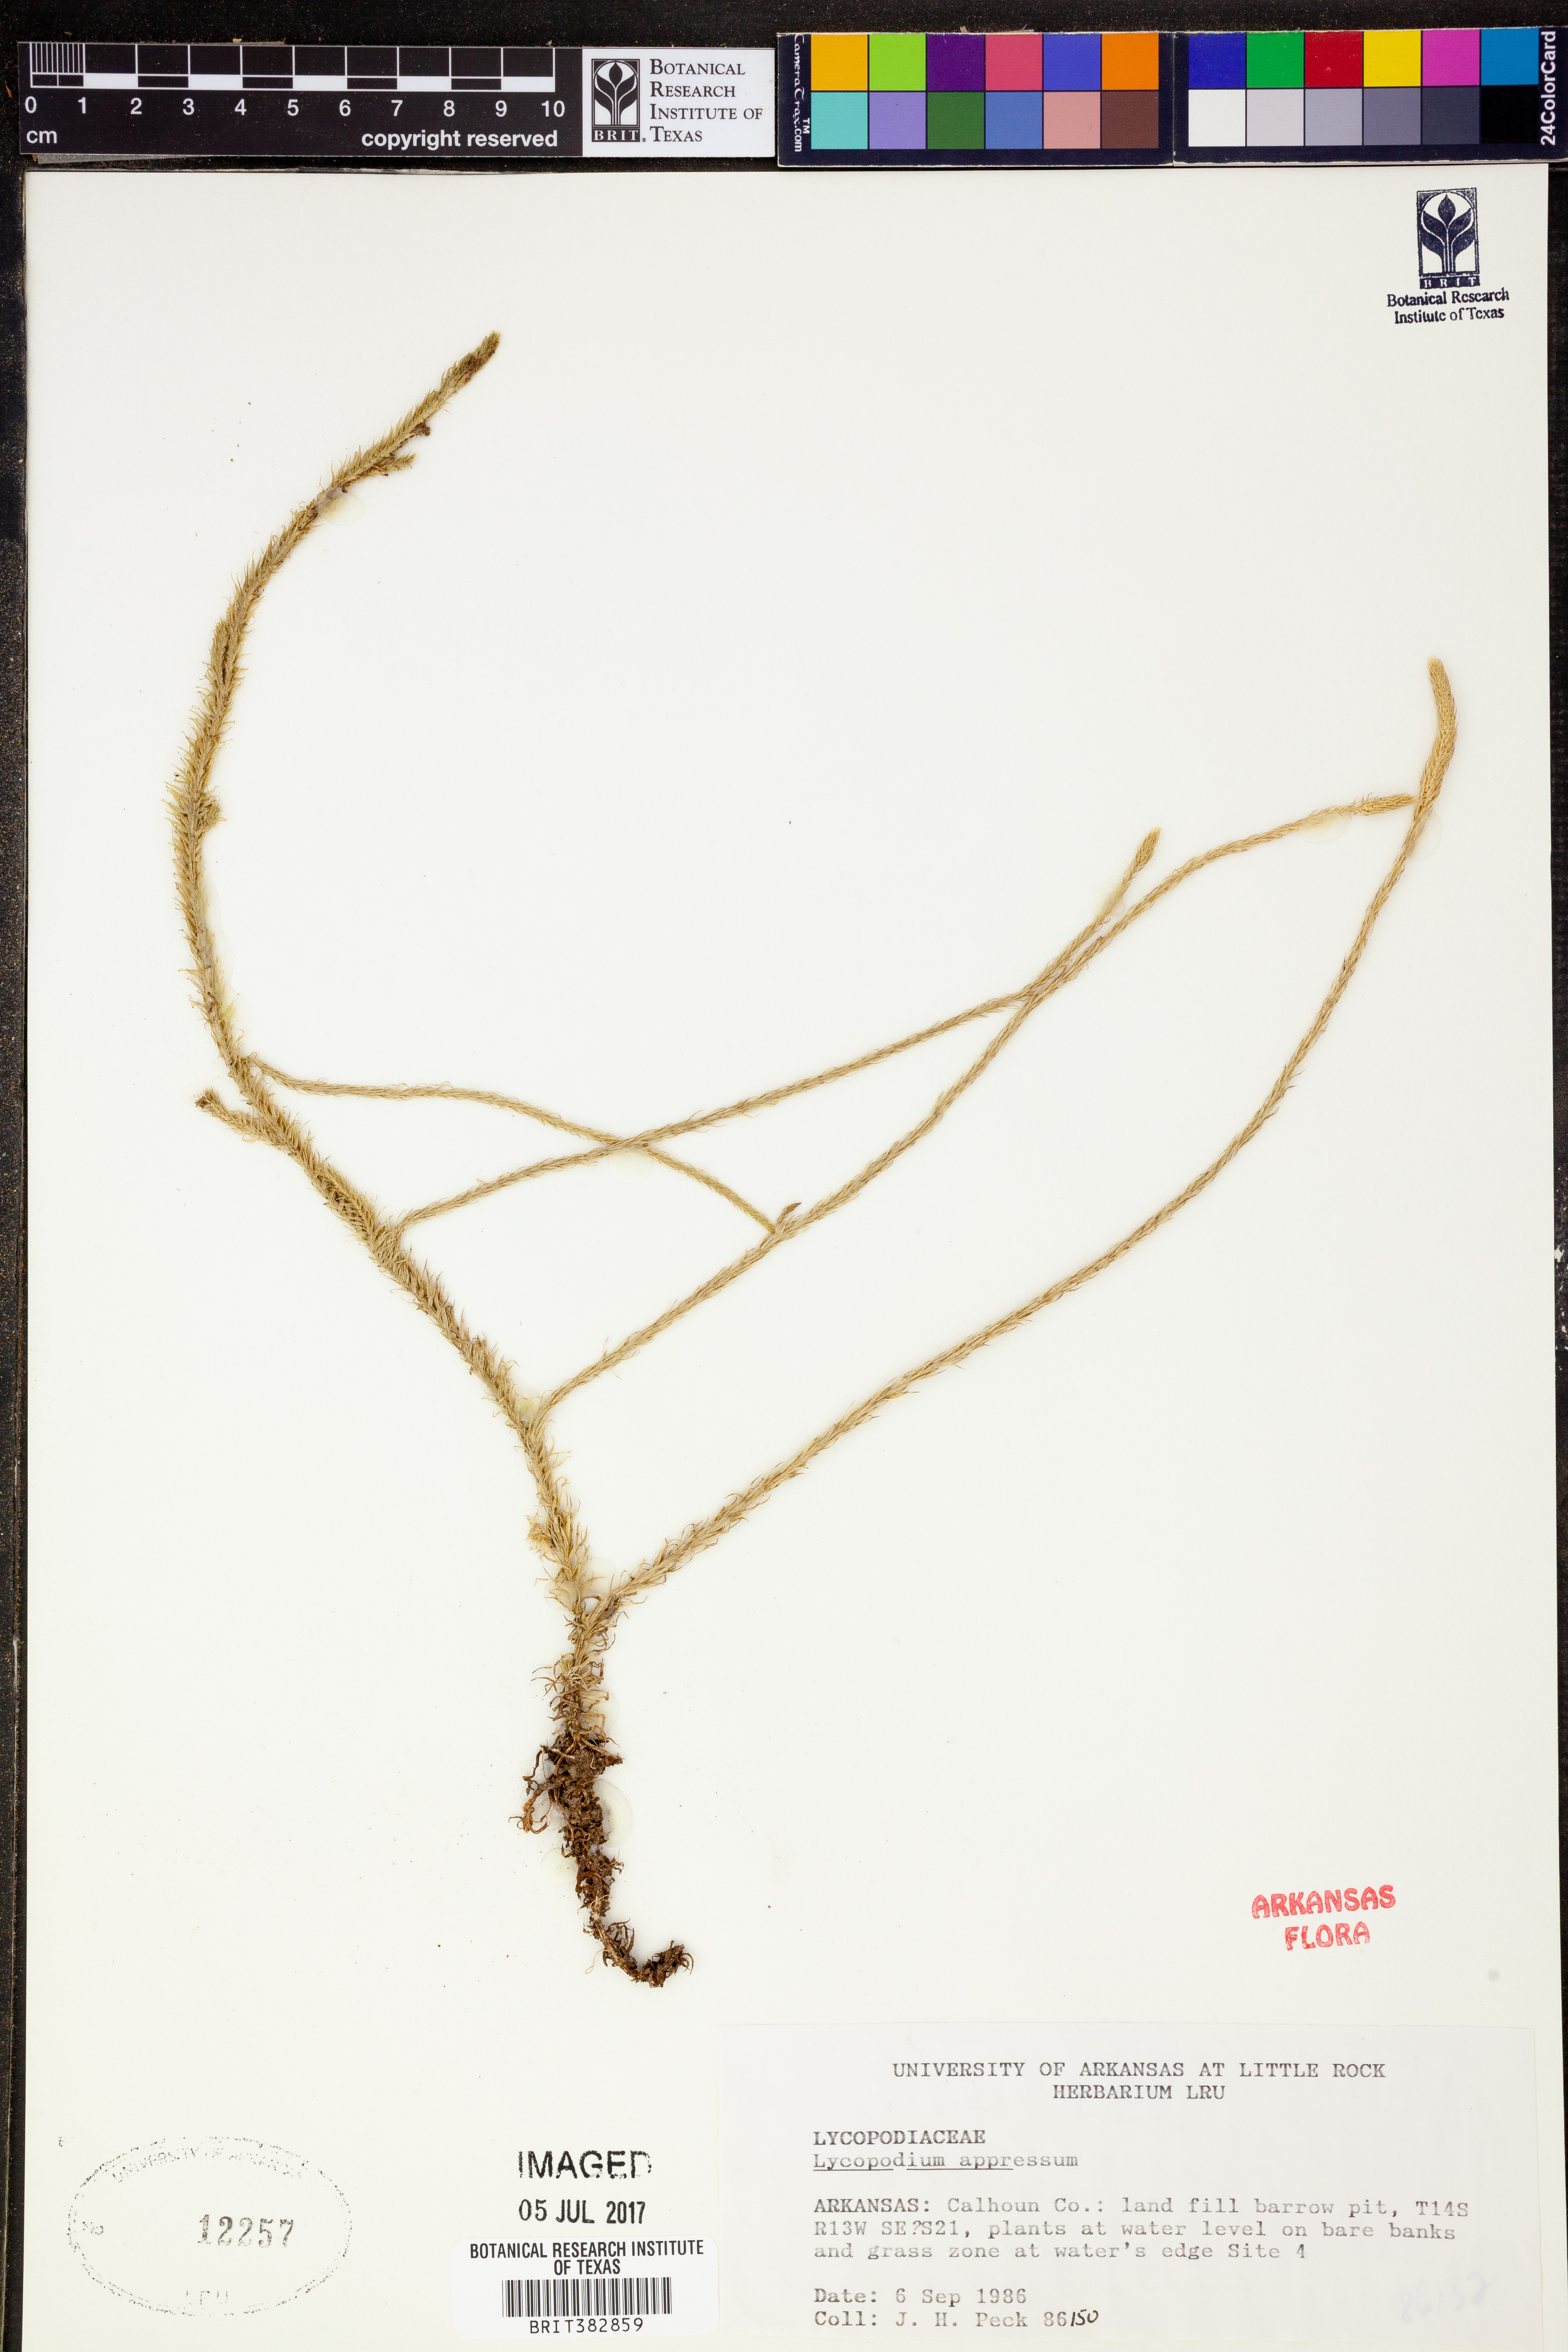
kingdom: Plantae
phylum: Tracheophyta
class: Lycopodiopsida
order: Lycopodiales
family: Lycopodiaceae
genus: Lycopodiella
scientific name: Lycopodiella appressa
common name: Appressed bog clubmoss
